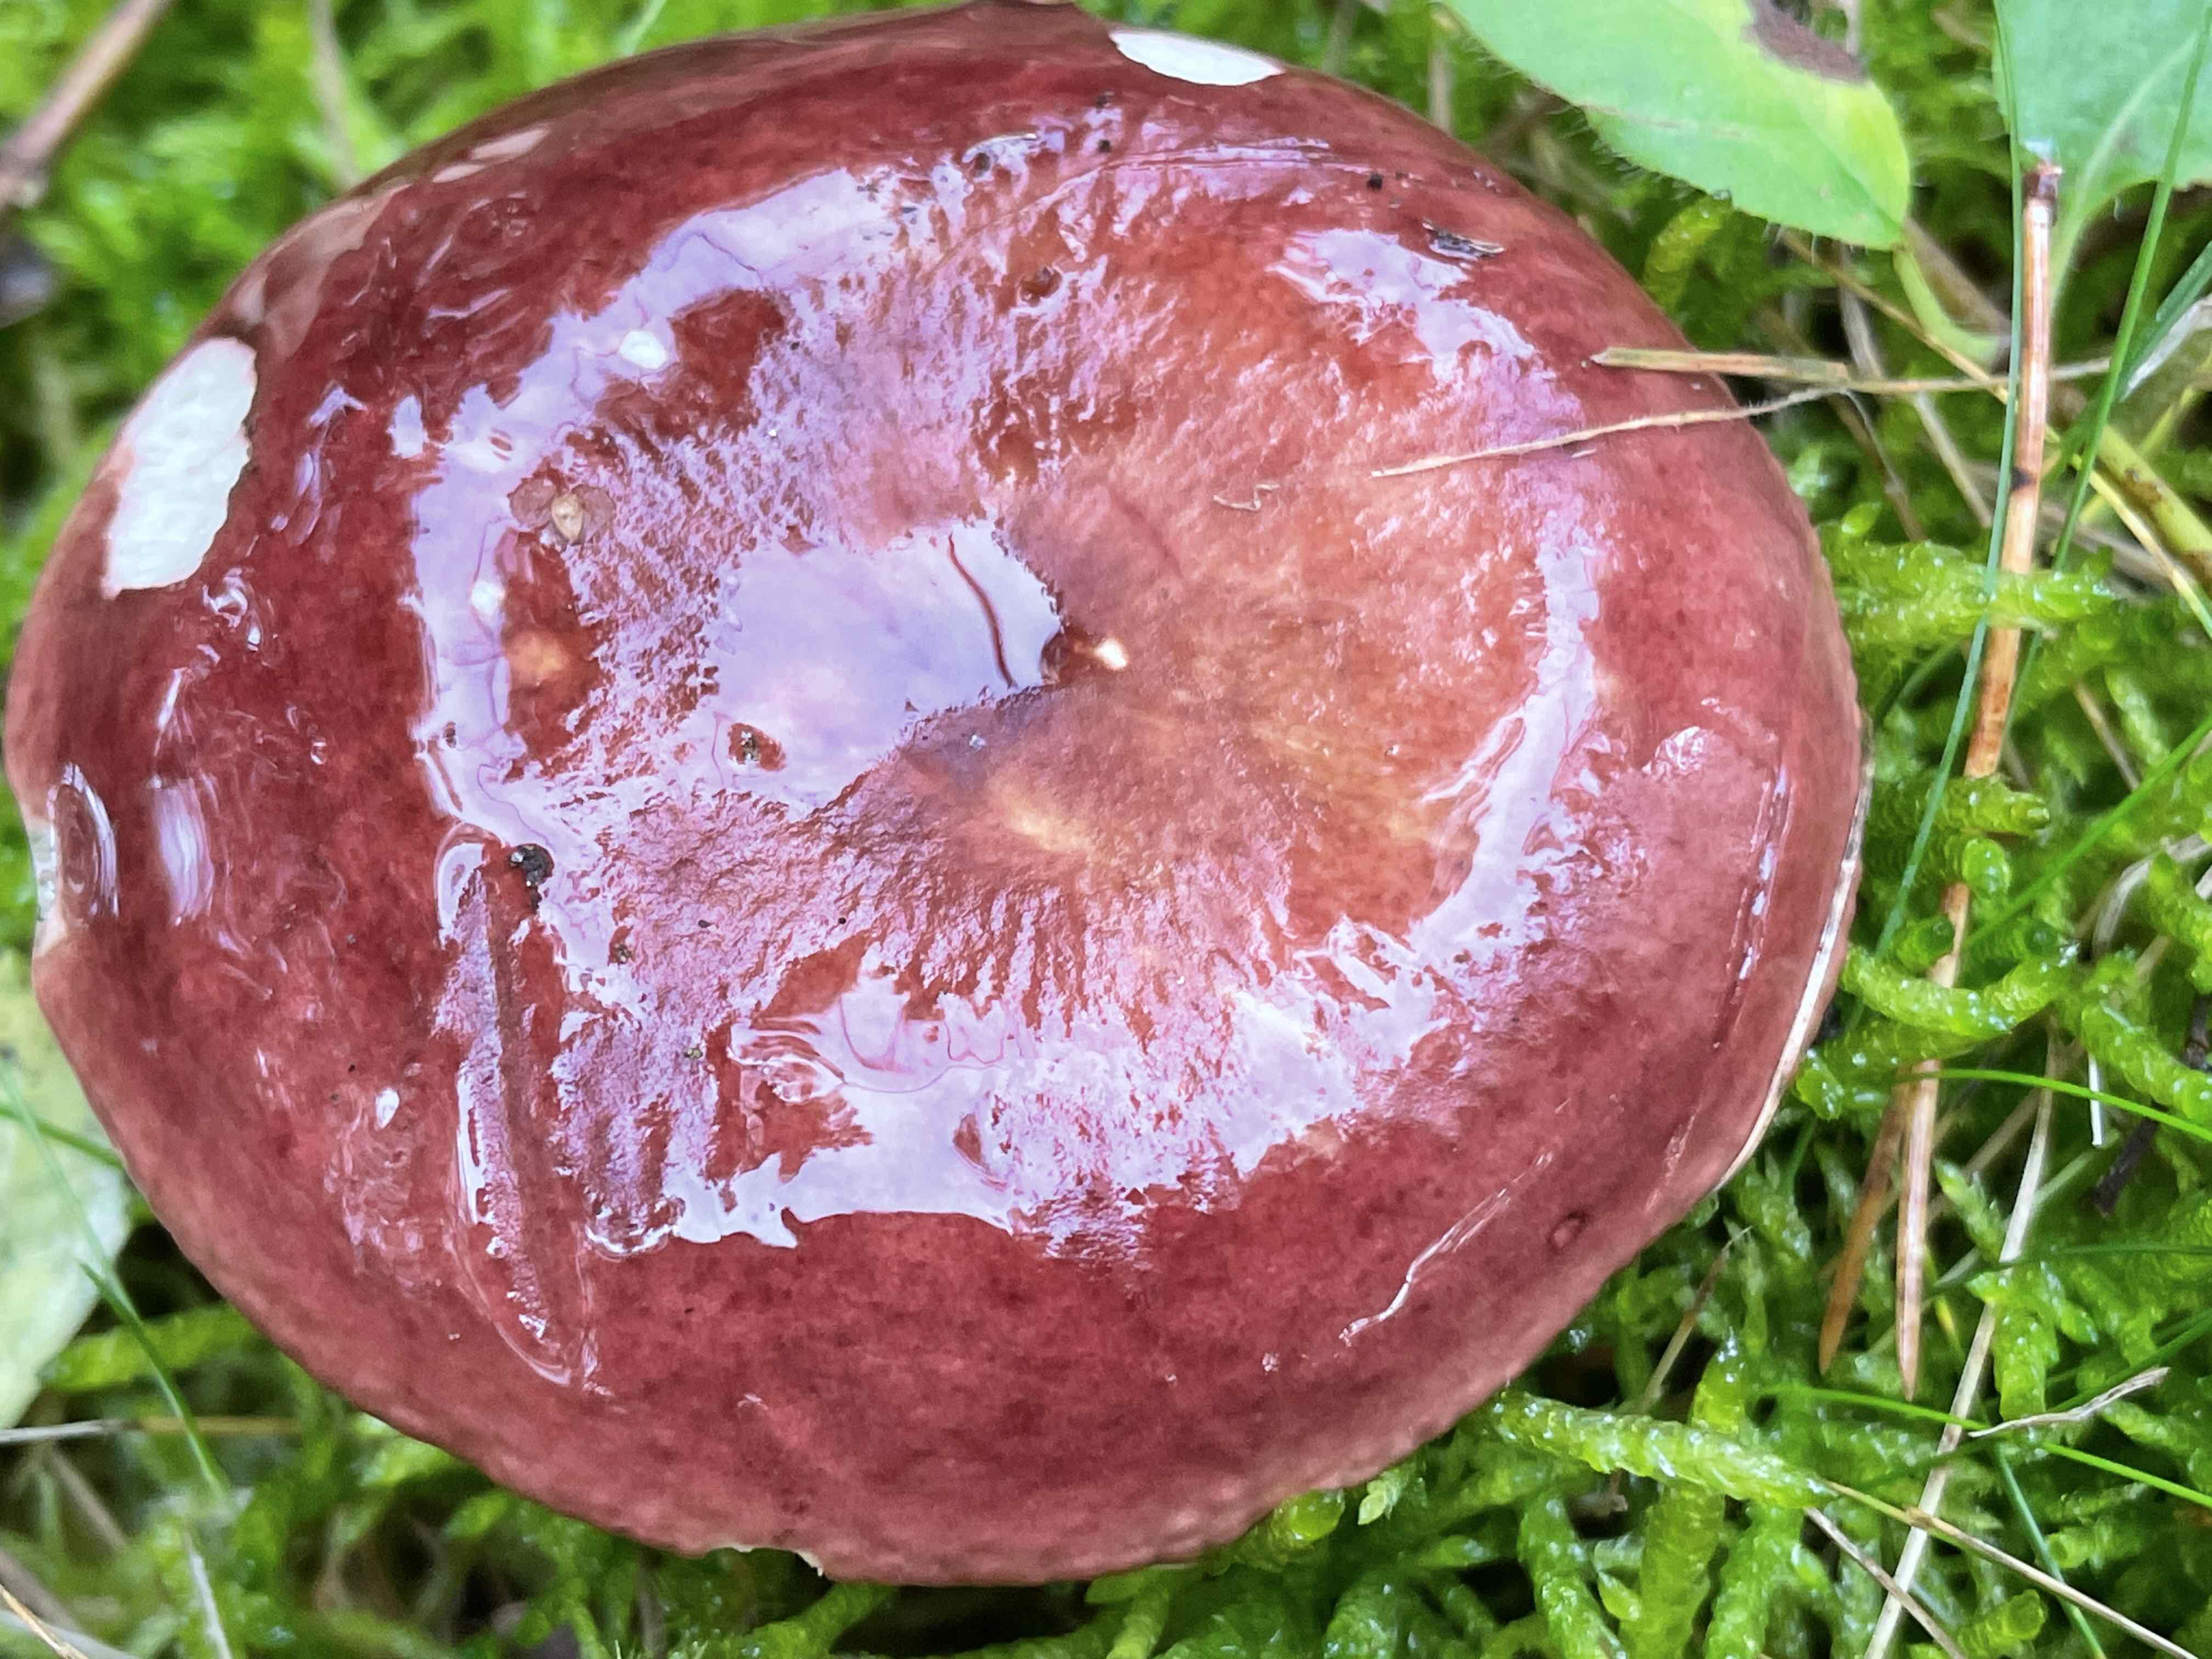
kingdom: Fungi
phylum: Basidiomycota
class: Agaricomycetes
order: Russulales
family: Russulaceae
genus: Russula
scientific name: Russula xerampelina
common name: hummer-skørhat
